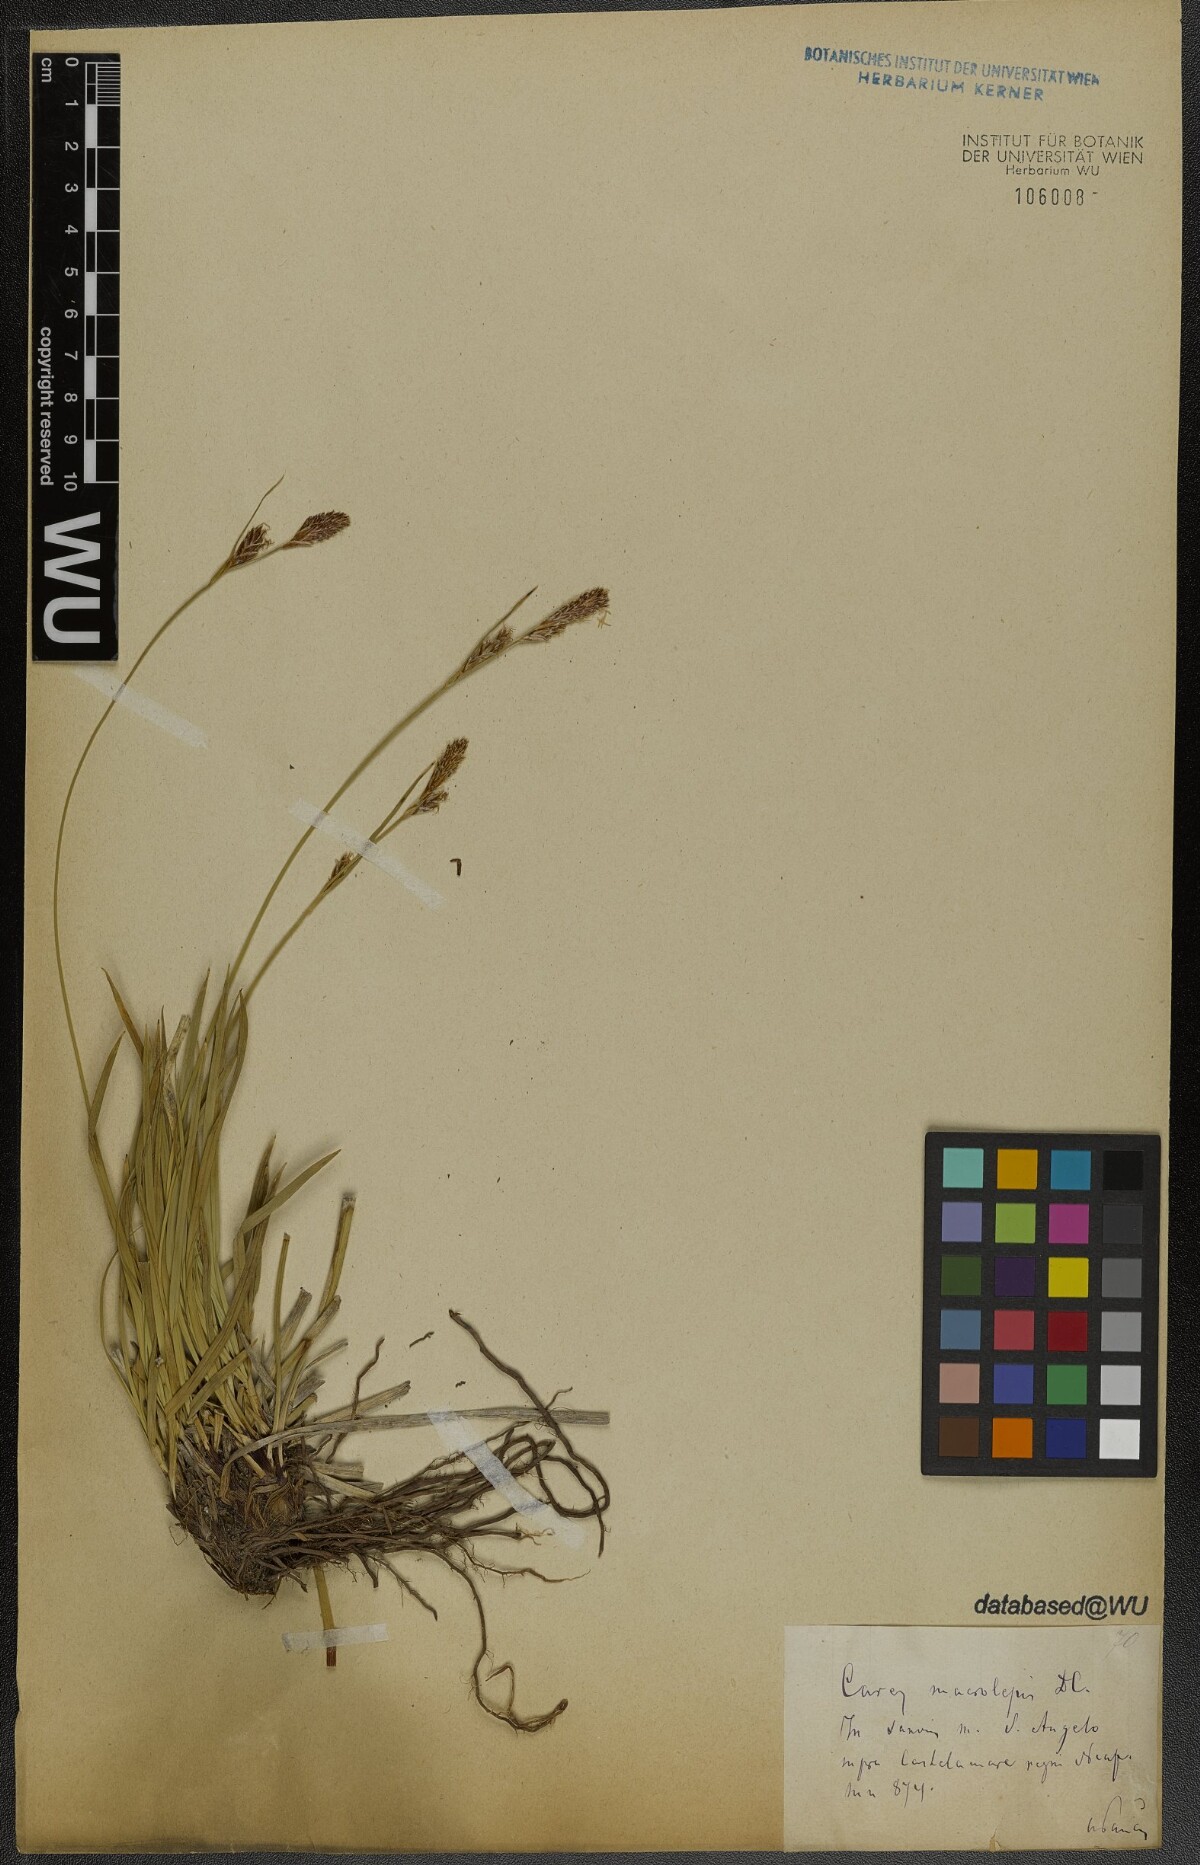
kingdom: Plantae
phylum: Tracheophyta
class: Liliopsida
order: Poales
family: Cyperaceae
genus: Carex
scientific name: Carex macrolepis
